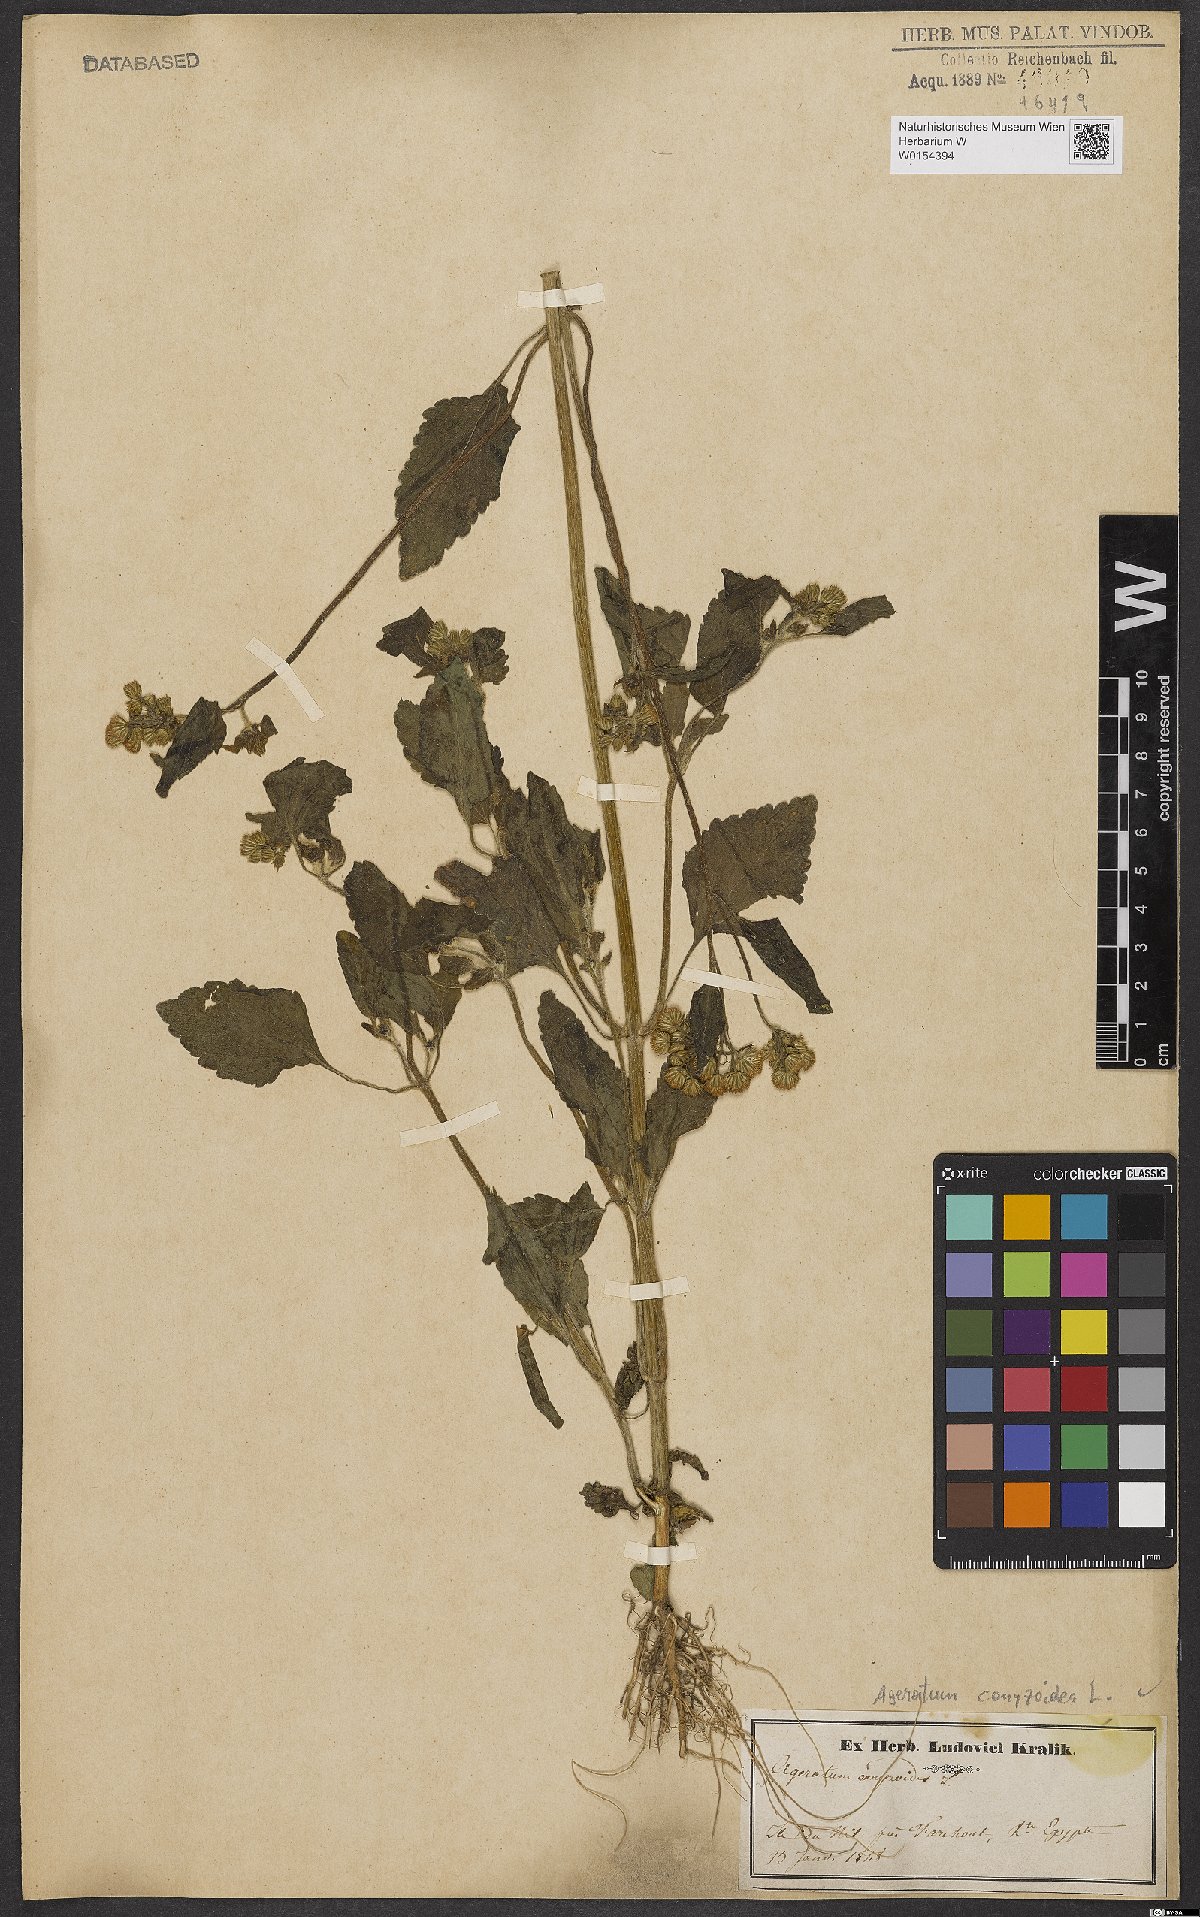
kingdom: Plantae
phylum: Tracheophyta
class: Magnoliopsida
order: Asterales
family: Asteraceae
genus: Ageratum
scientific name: Ageratum conyzoides
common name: Tropical whiteweed
